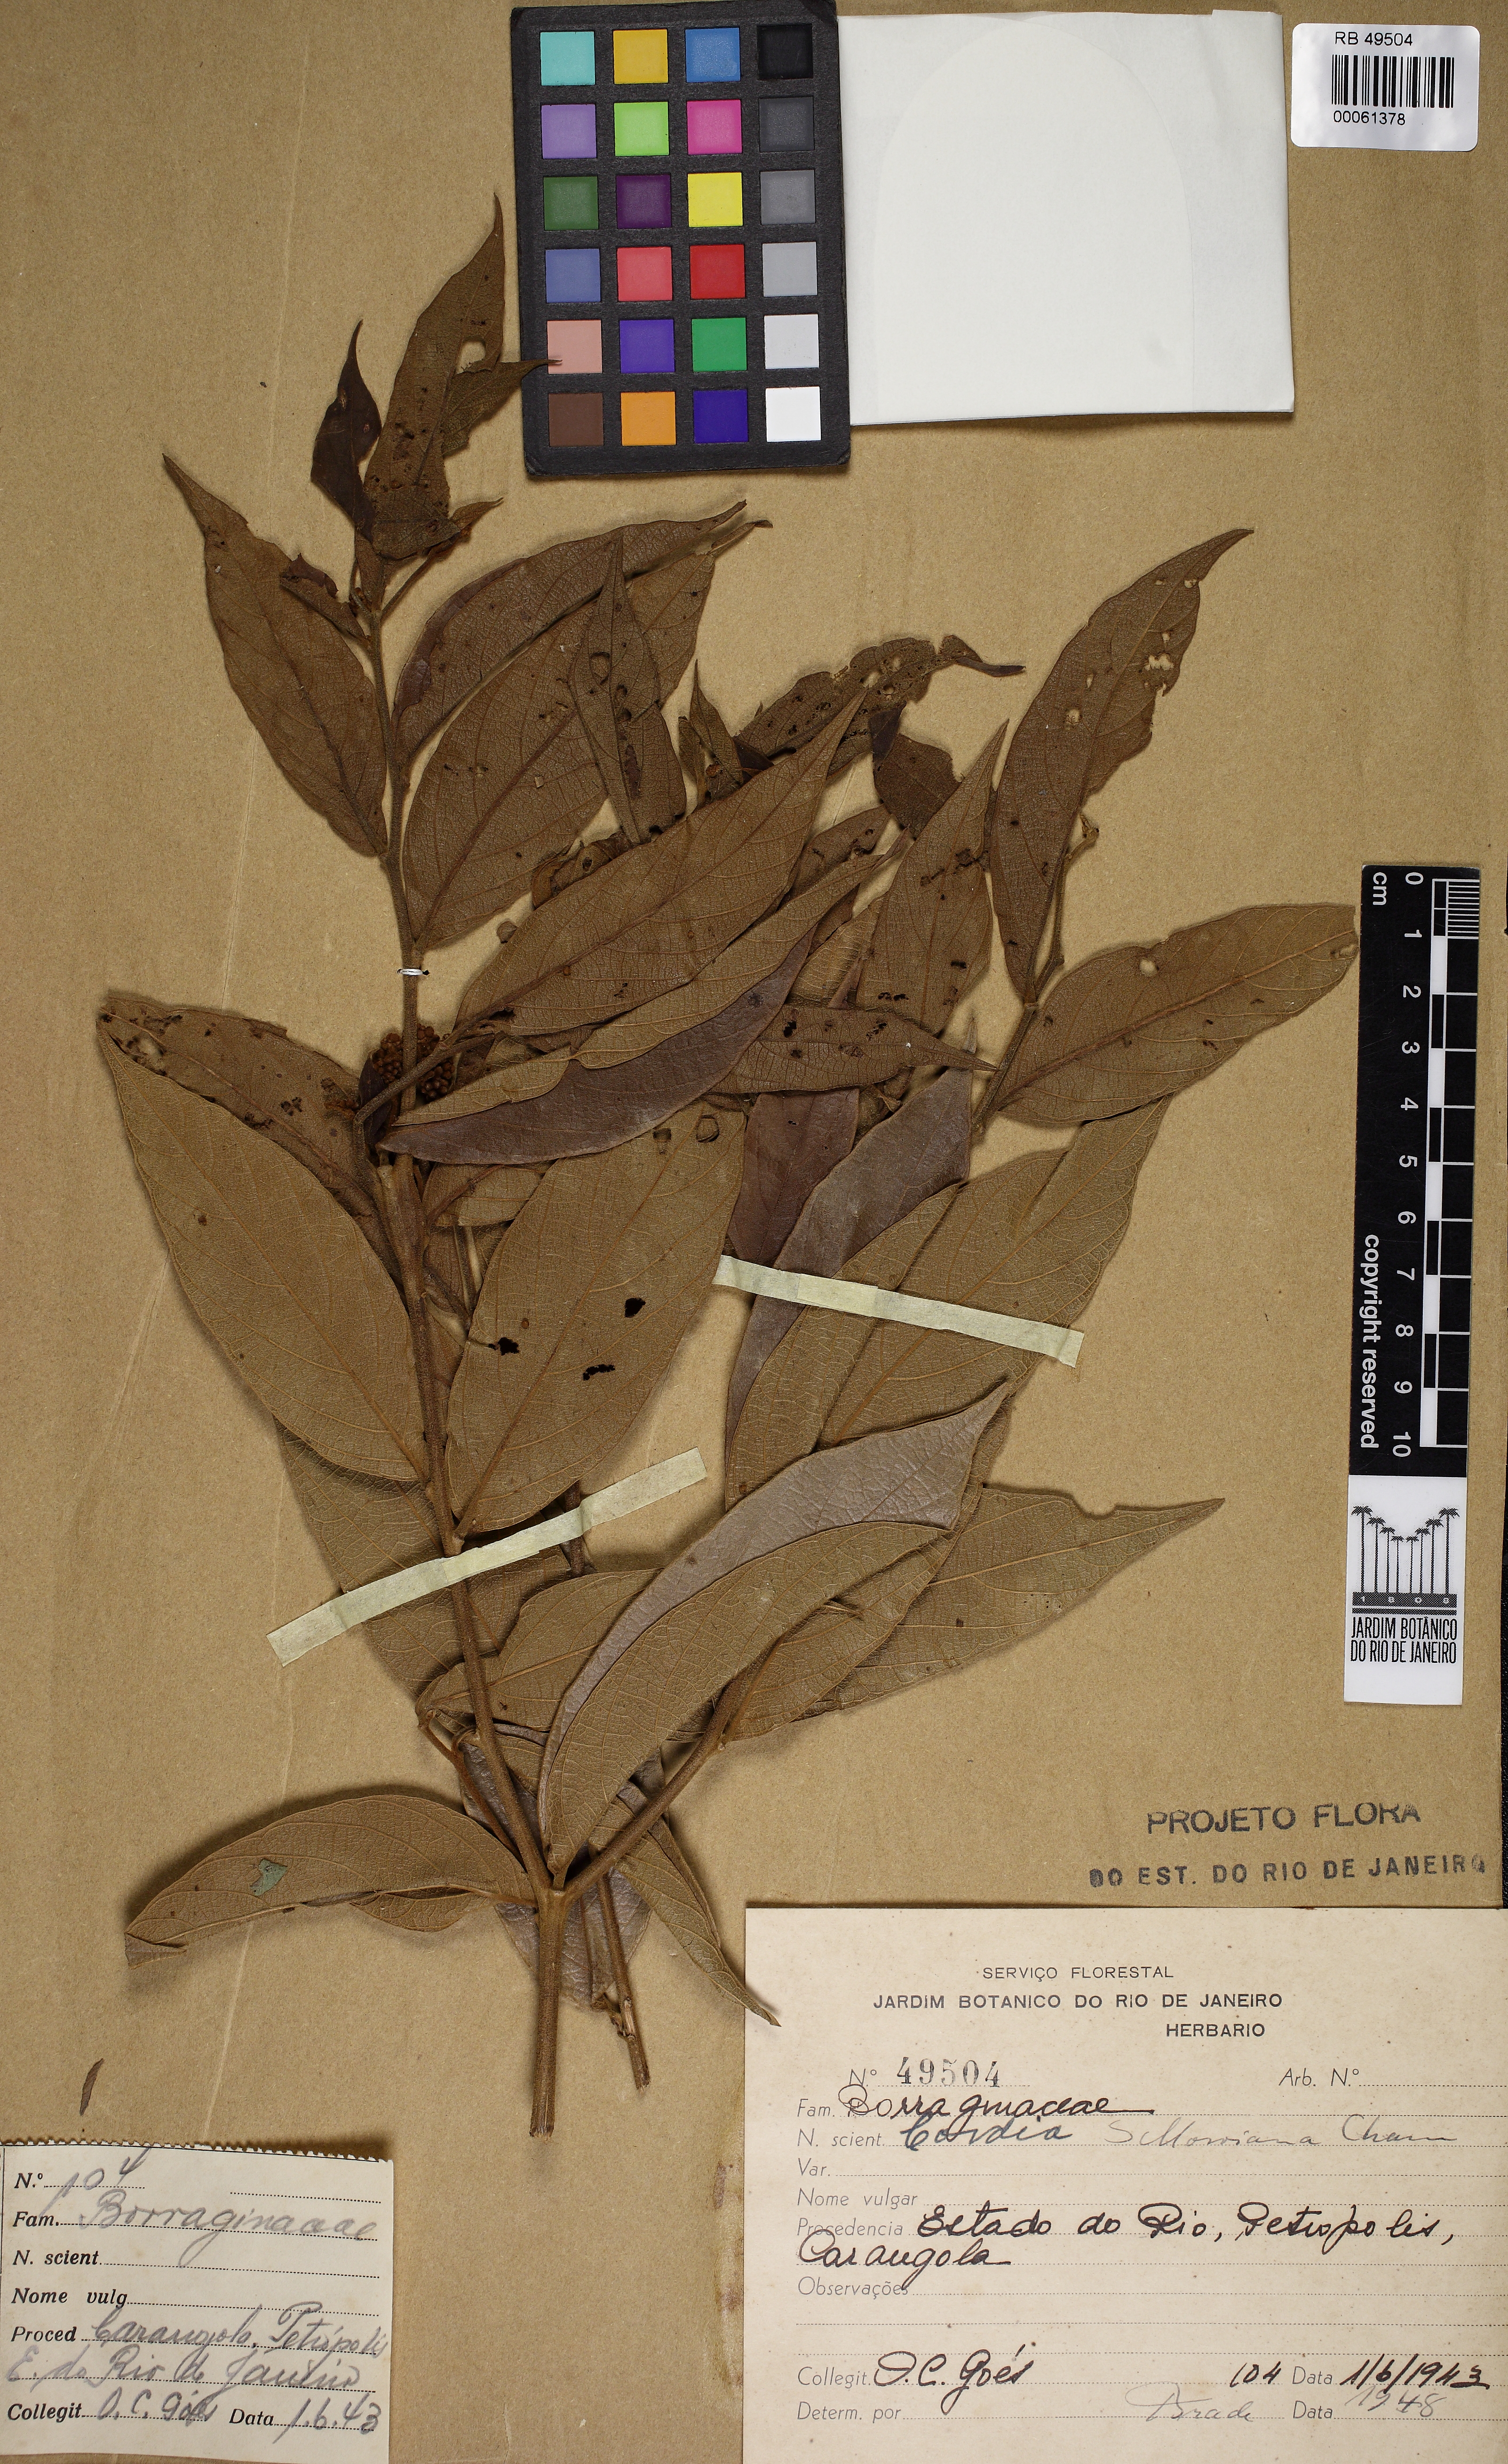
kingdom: Plantae
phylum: Tracheophyta
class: Magnoliopsida
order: Boraginales
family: Cordiaceae
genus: Cordia
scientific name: Cordia sellowiana
